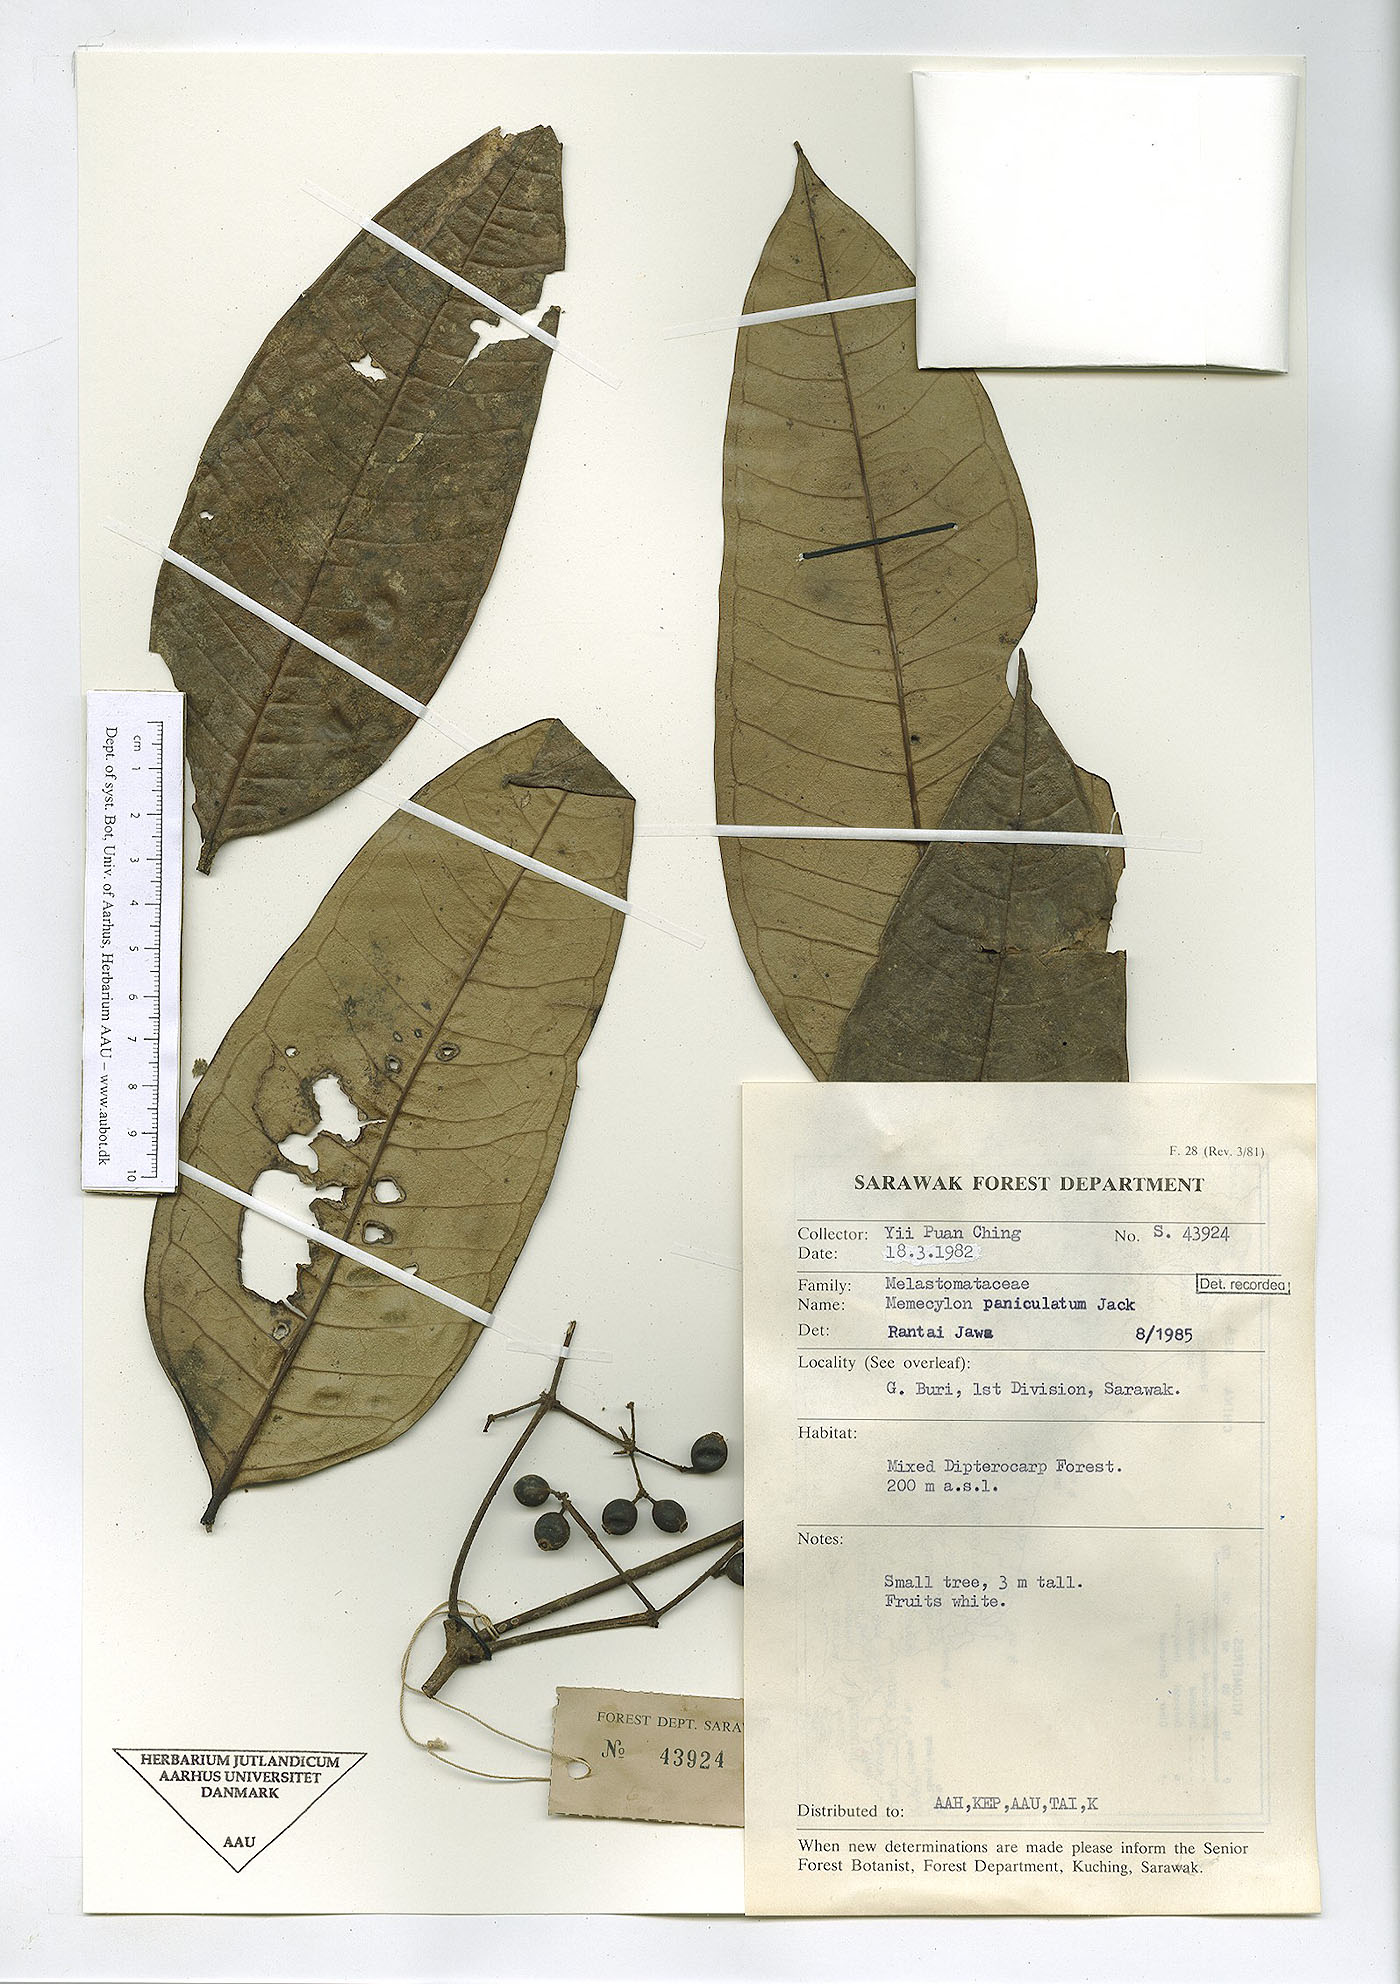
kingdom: Plantae
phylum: Tracheophyta
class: Magnoliopsida
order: Myrtales
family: Melastomataceae
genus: Memecylon
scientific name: Memecylon paniculatum
